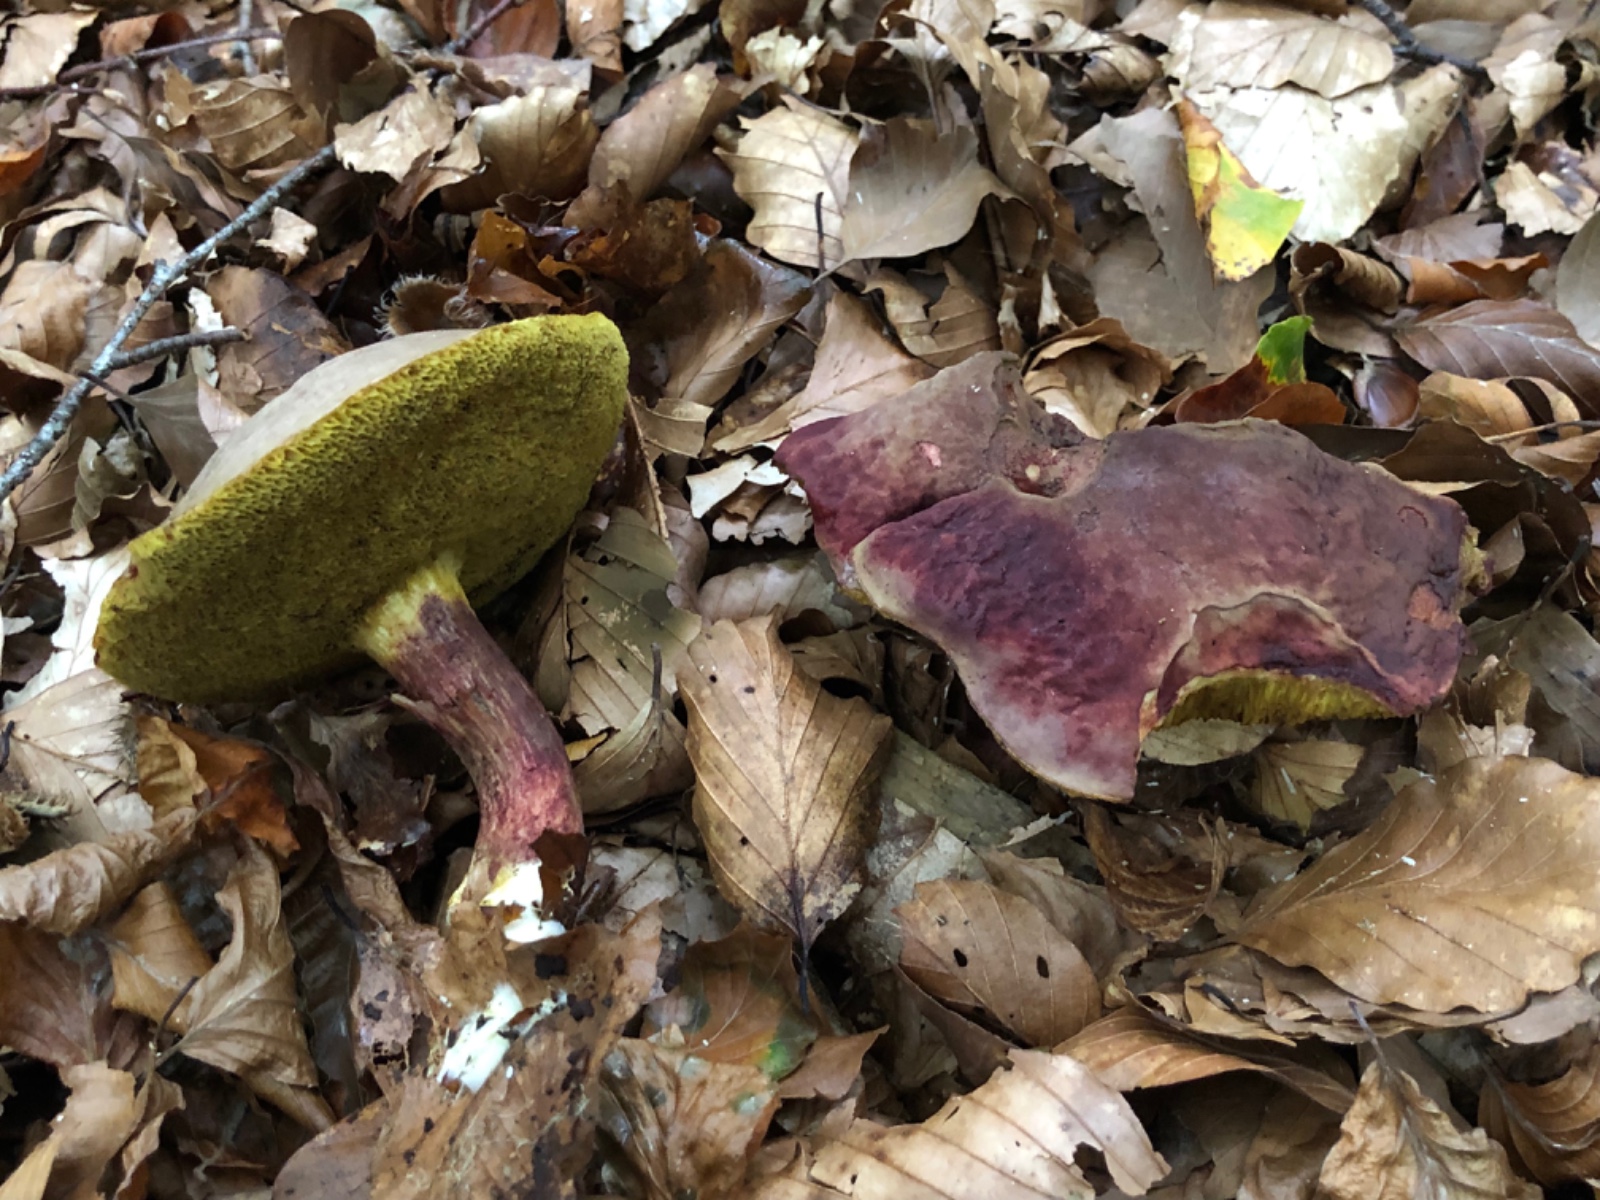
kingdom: Fungi
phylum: Basidiomycota
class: Agaricomycetes
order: Boletales
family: Boletaceae
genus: Xerocomellus
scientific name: Xerocomellus pruinatus
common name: dugget rørhat
